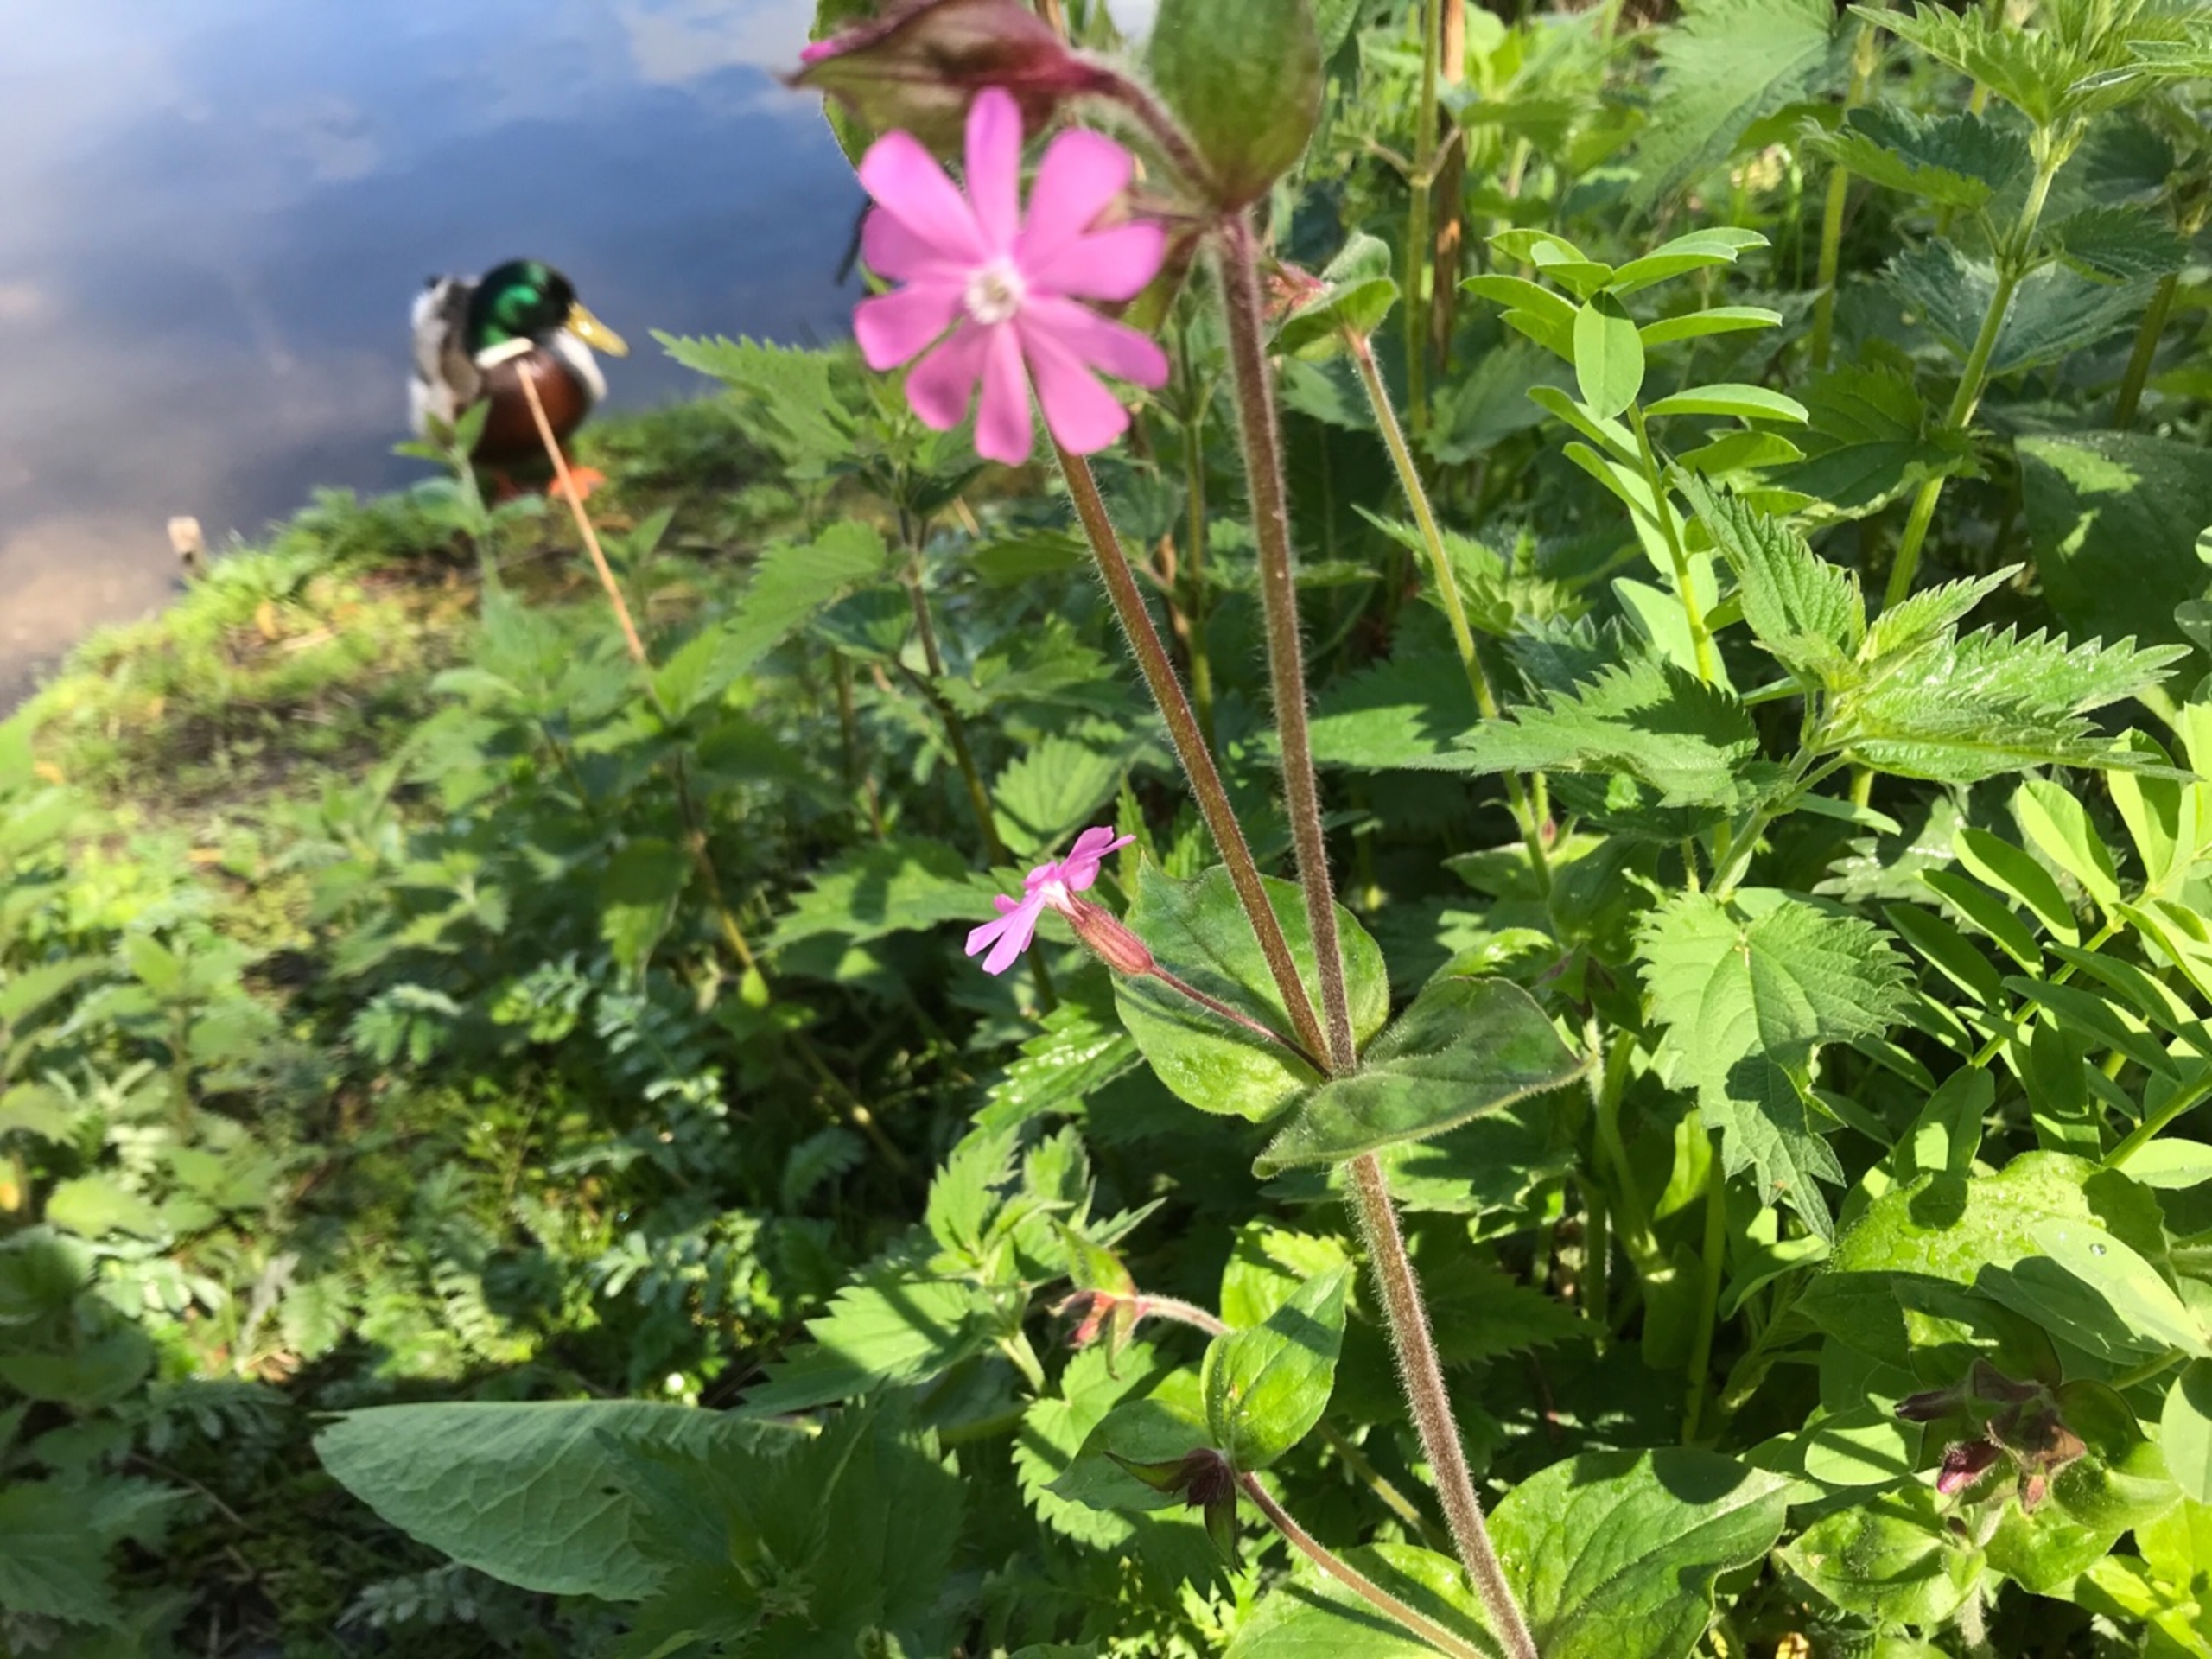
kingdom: Plantae
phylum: Tracheophyta
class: Magnoliopsida
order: Caryophyllales
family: Caryophyllaceae
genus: Silene
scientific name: Silene dioica
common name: Dagpragtstjerne
